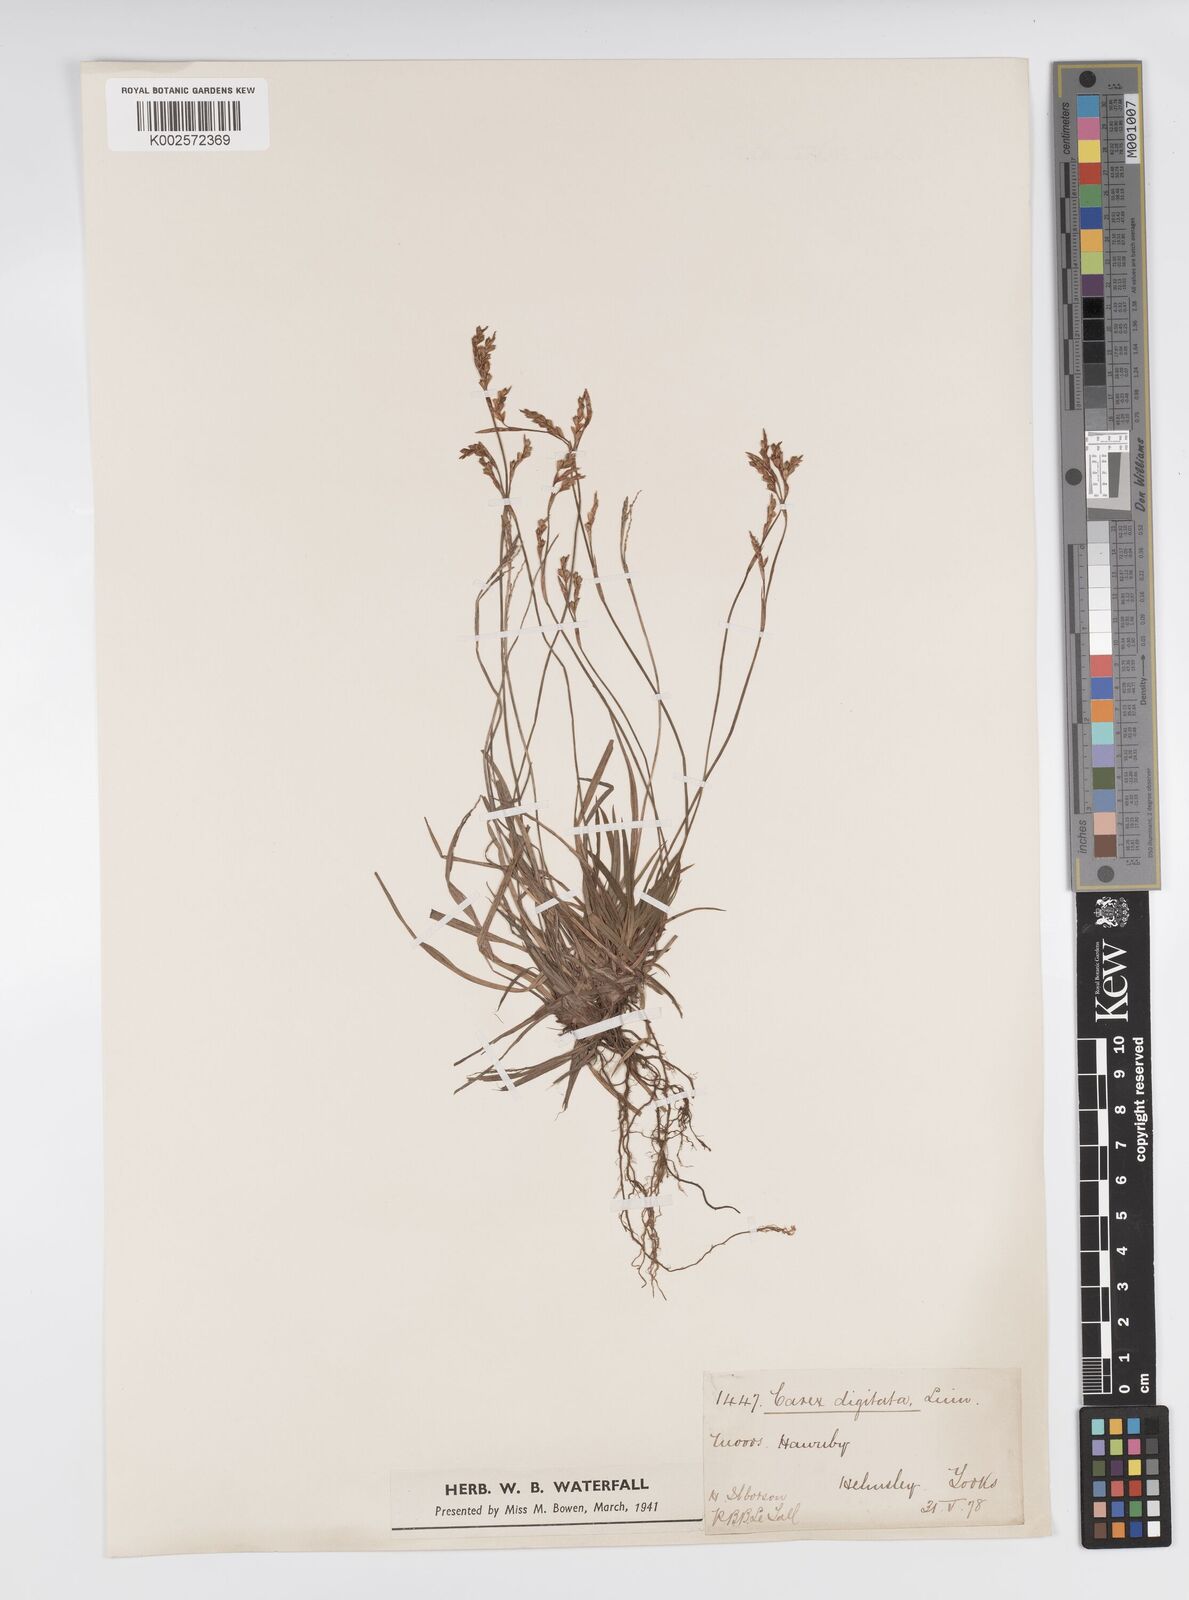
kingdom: Plantae
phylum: Tracheophyta
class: Liliopsida
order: Poales
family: Cyperaceae
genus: Carex
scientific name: Carex digitata
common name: Fingered sedge
